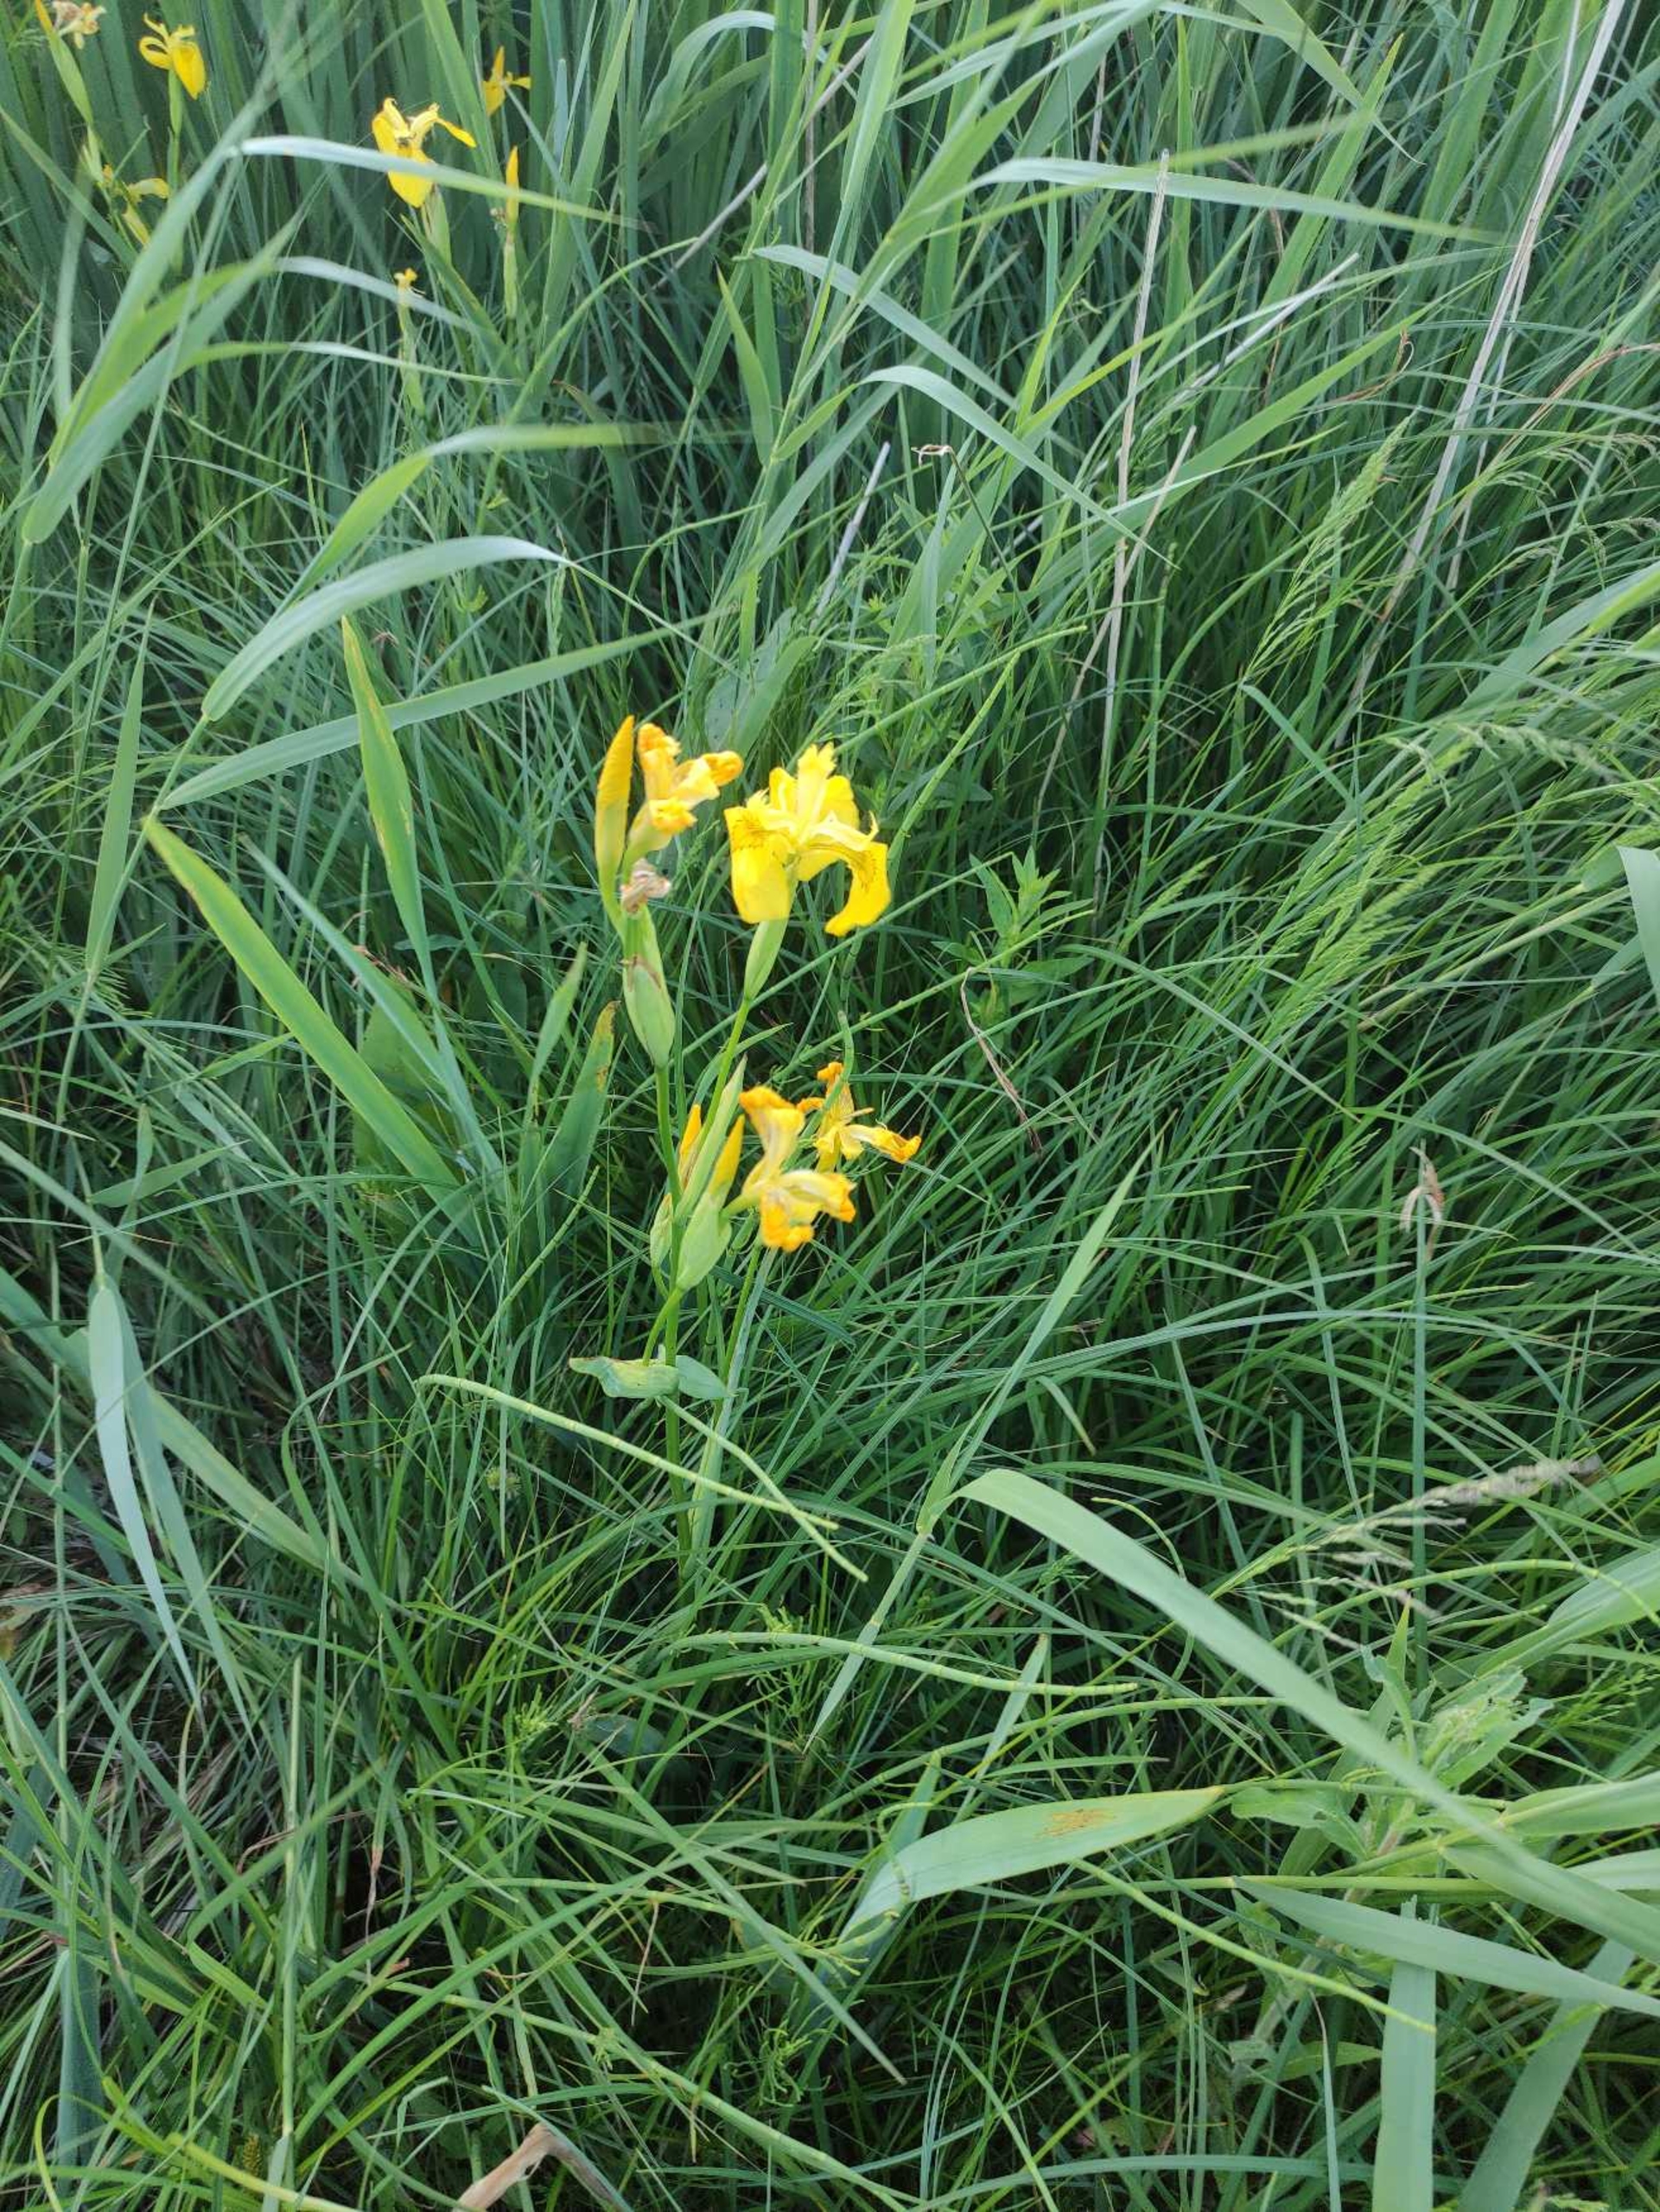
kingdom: Plantae
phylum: Tracheophyta
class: Liliopsida
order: Asparagales
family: Iridaceae
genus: Iris
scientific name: Iris pseudacorus
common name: Gul iris
